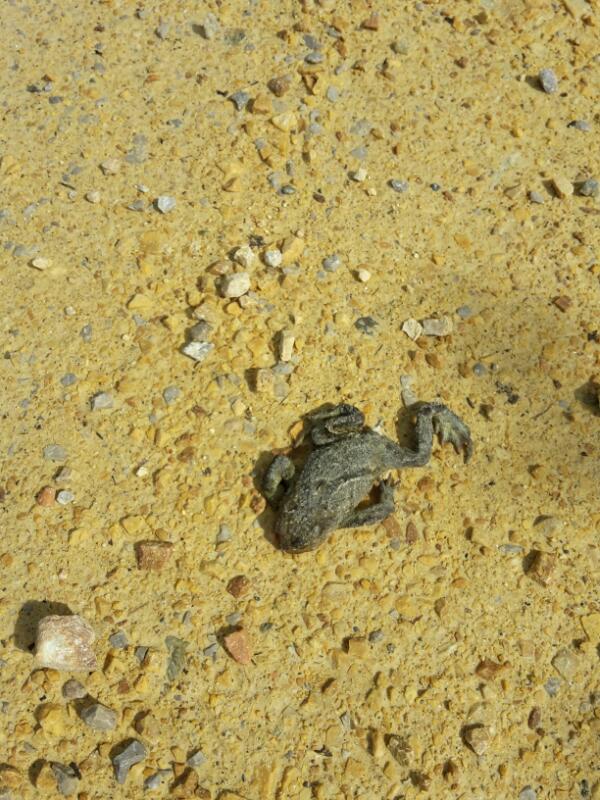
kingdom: Animalia
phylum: Chordata
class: Amphibia
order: Anura
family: Bufonidae
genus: Bufo
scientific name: Bufo bufo
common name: Common toad
